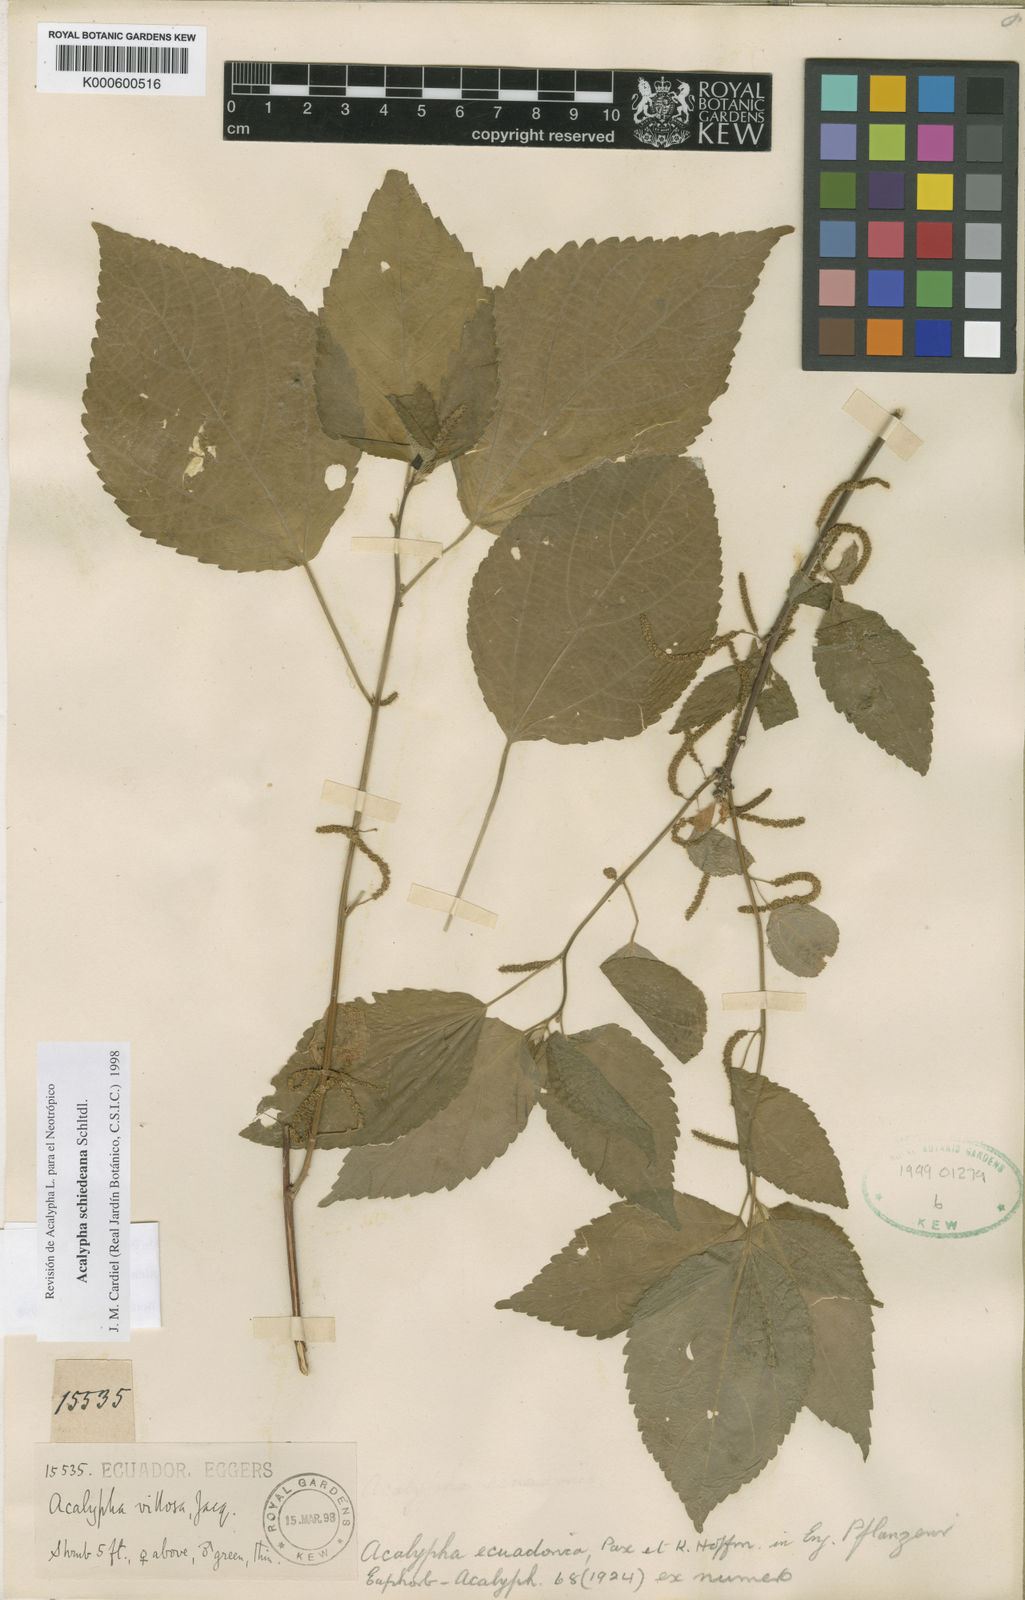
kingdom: Plantae
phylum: Tracheophyta
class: Magnoliopsida
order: Malpighiales
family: Euphorbiaceae
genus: Acalypha
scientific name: Acalypha schiedeana
